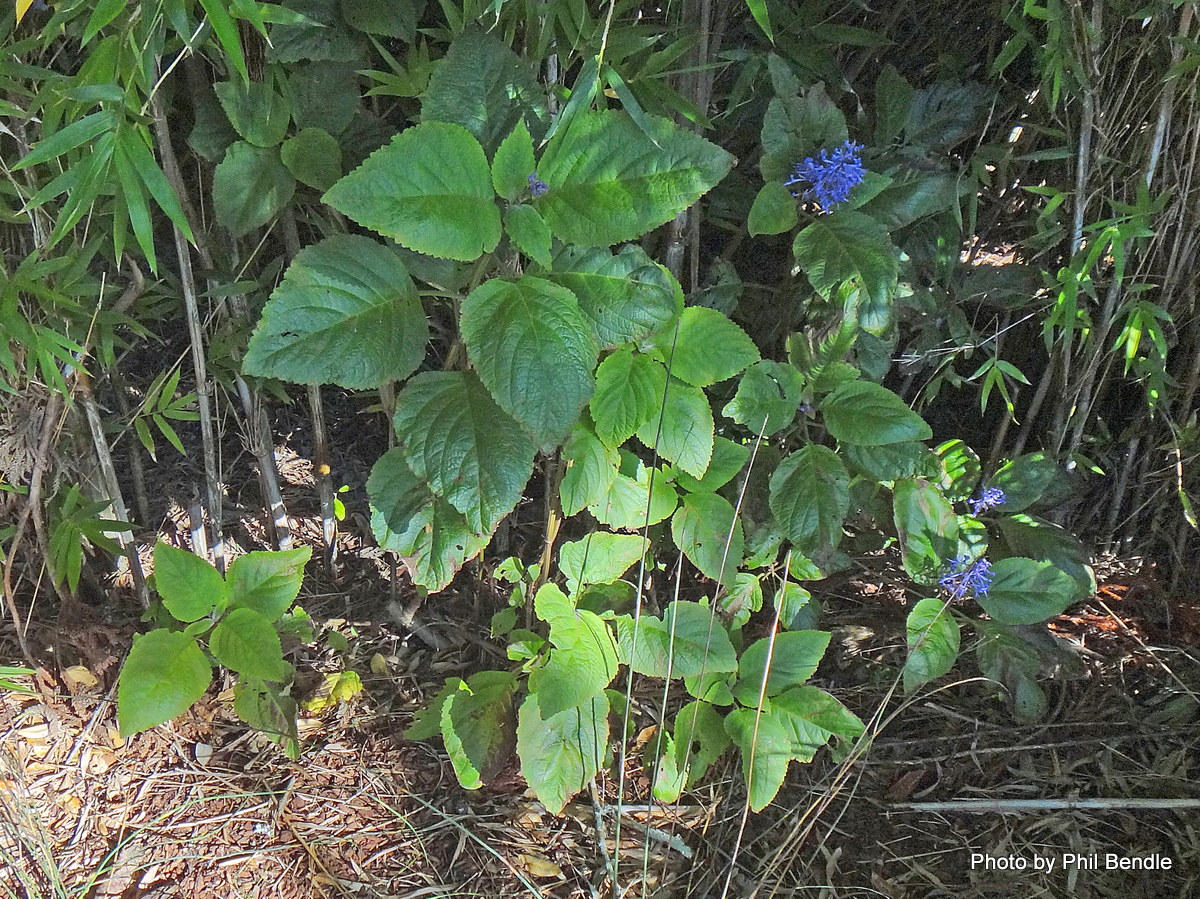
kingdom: Plantae
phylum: Tracheophyta
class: Magnoliopsida
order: Lamiales
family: Lamiaceae
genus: Plectranthus
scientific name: Plectranthus elegans
